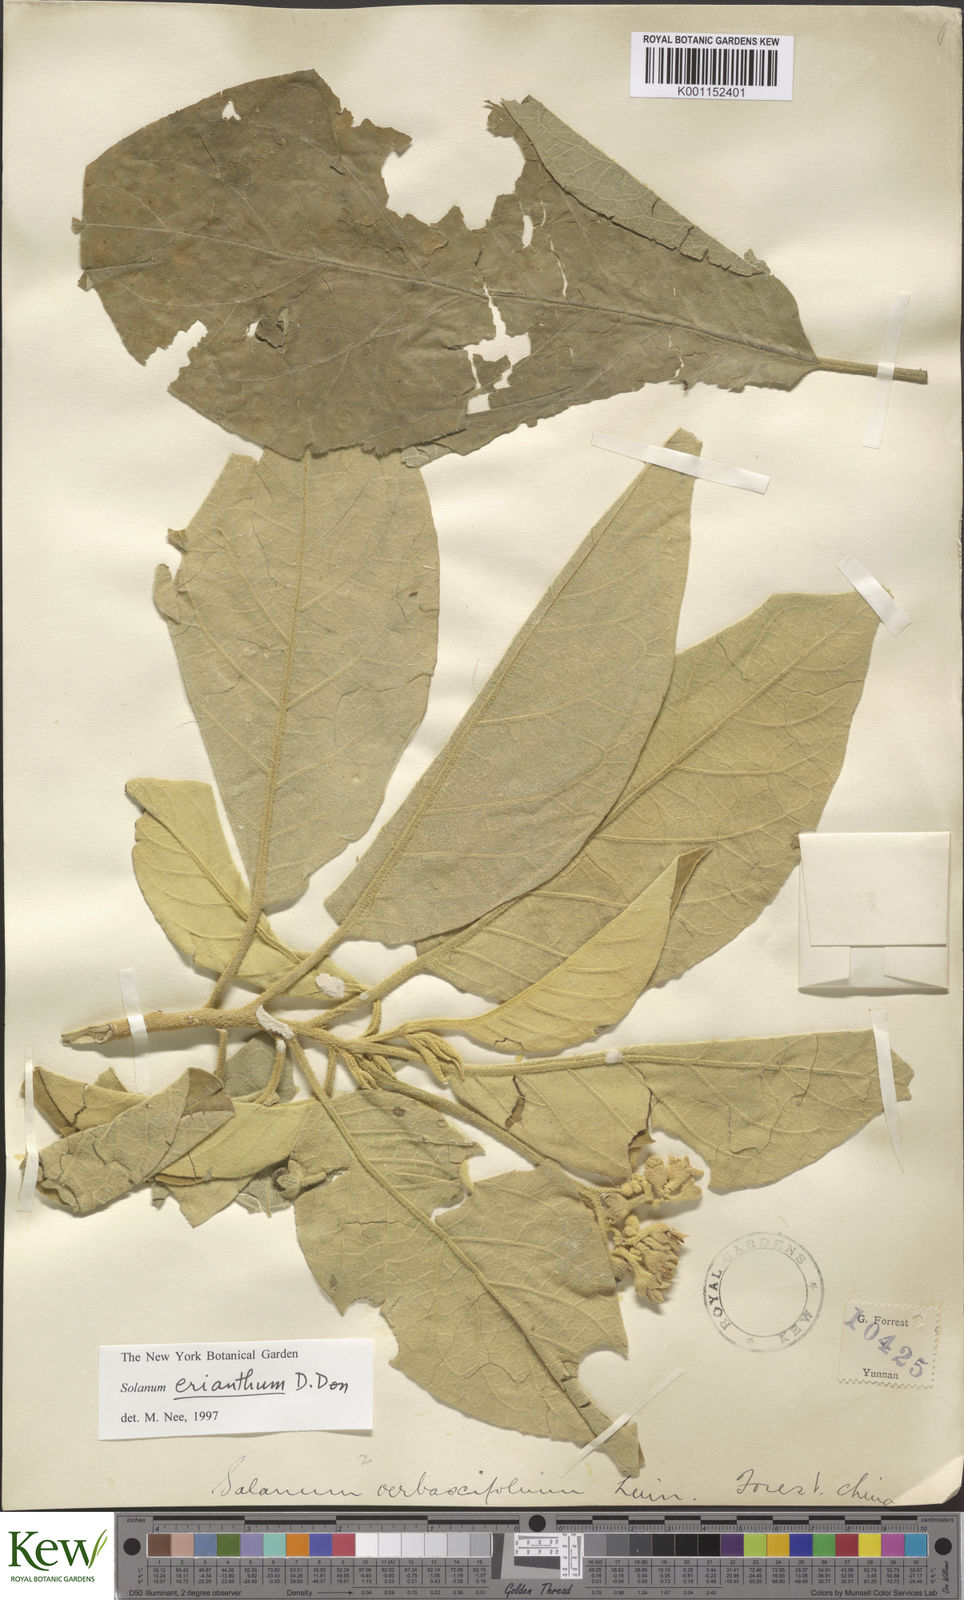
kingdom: Plantae
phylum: Tracheophyta
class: Magnoliopsida
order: Solanales
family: Solanaceae
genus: Solanum
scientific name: Solanum donianum
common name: Mullein nightshade
